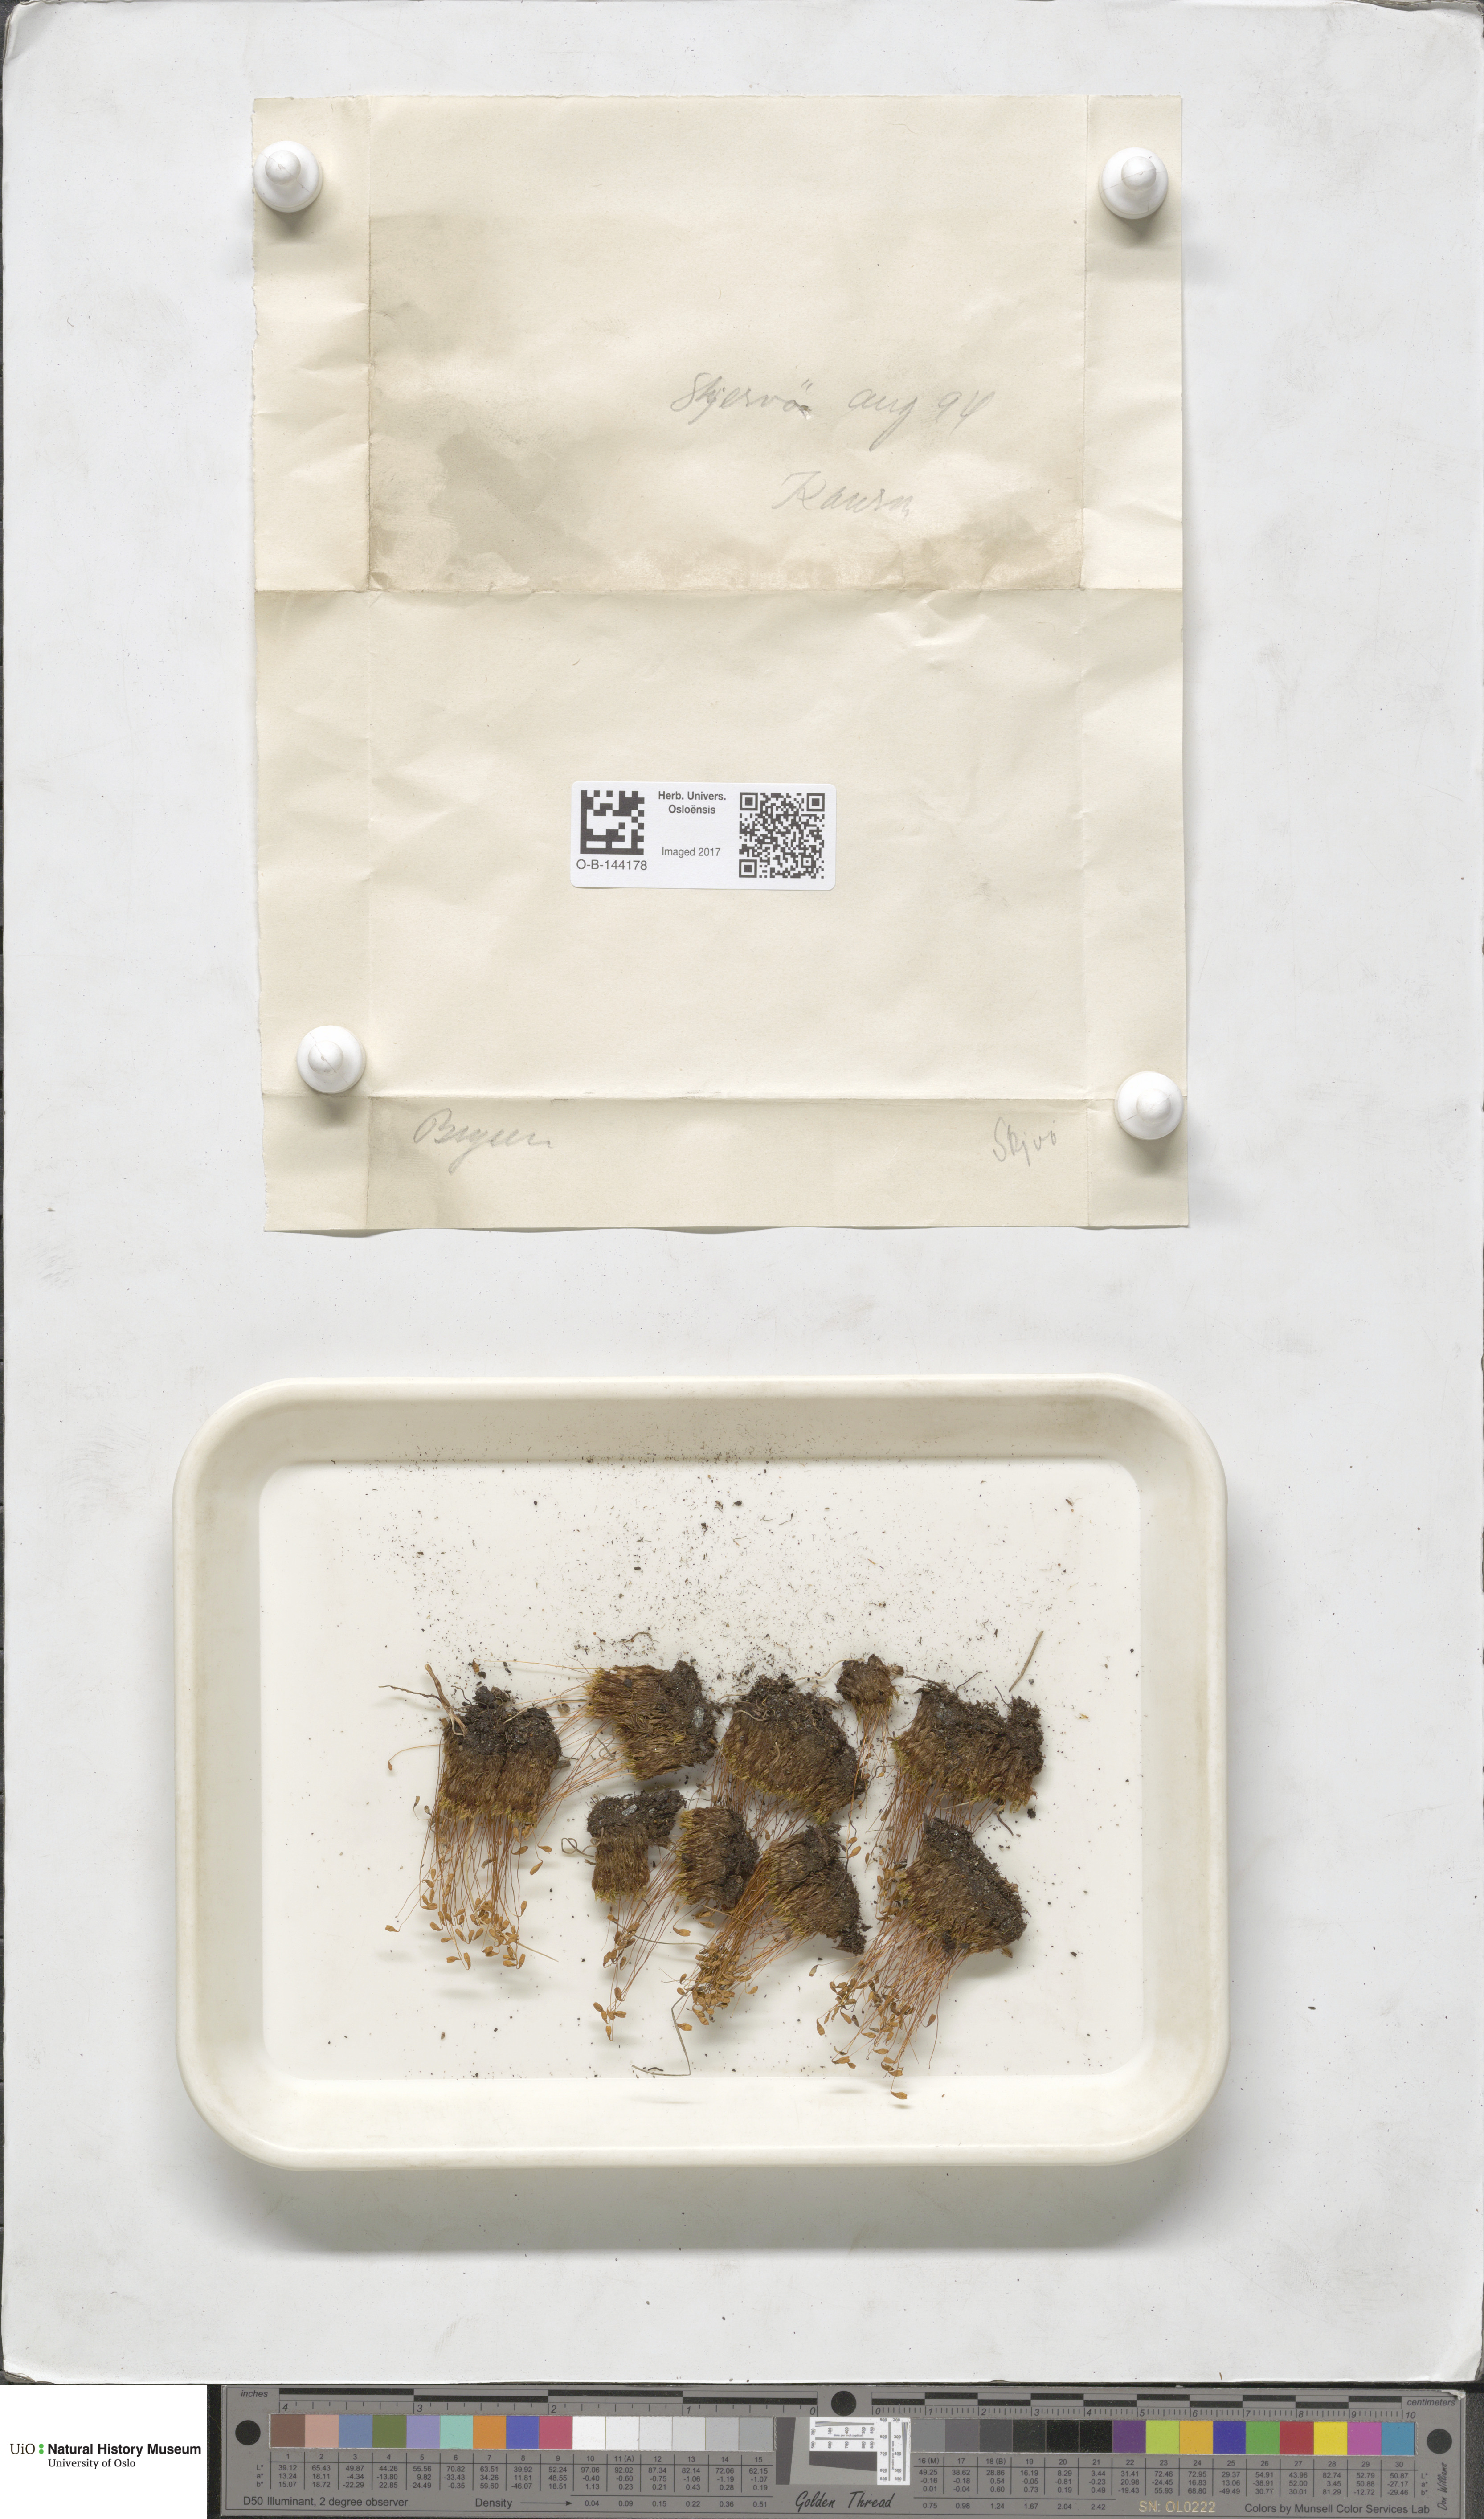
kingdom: Plantae
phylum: Bryophyta
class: Bryopsida
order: Bryales
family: Bryaceae
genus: Bryum
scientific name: Bryum
